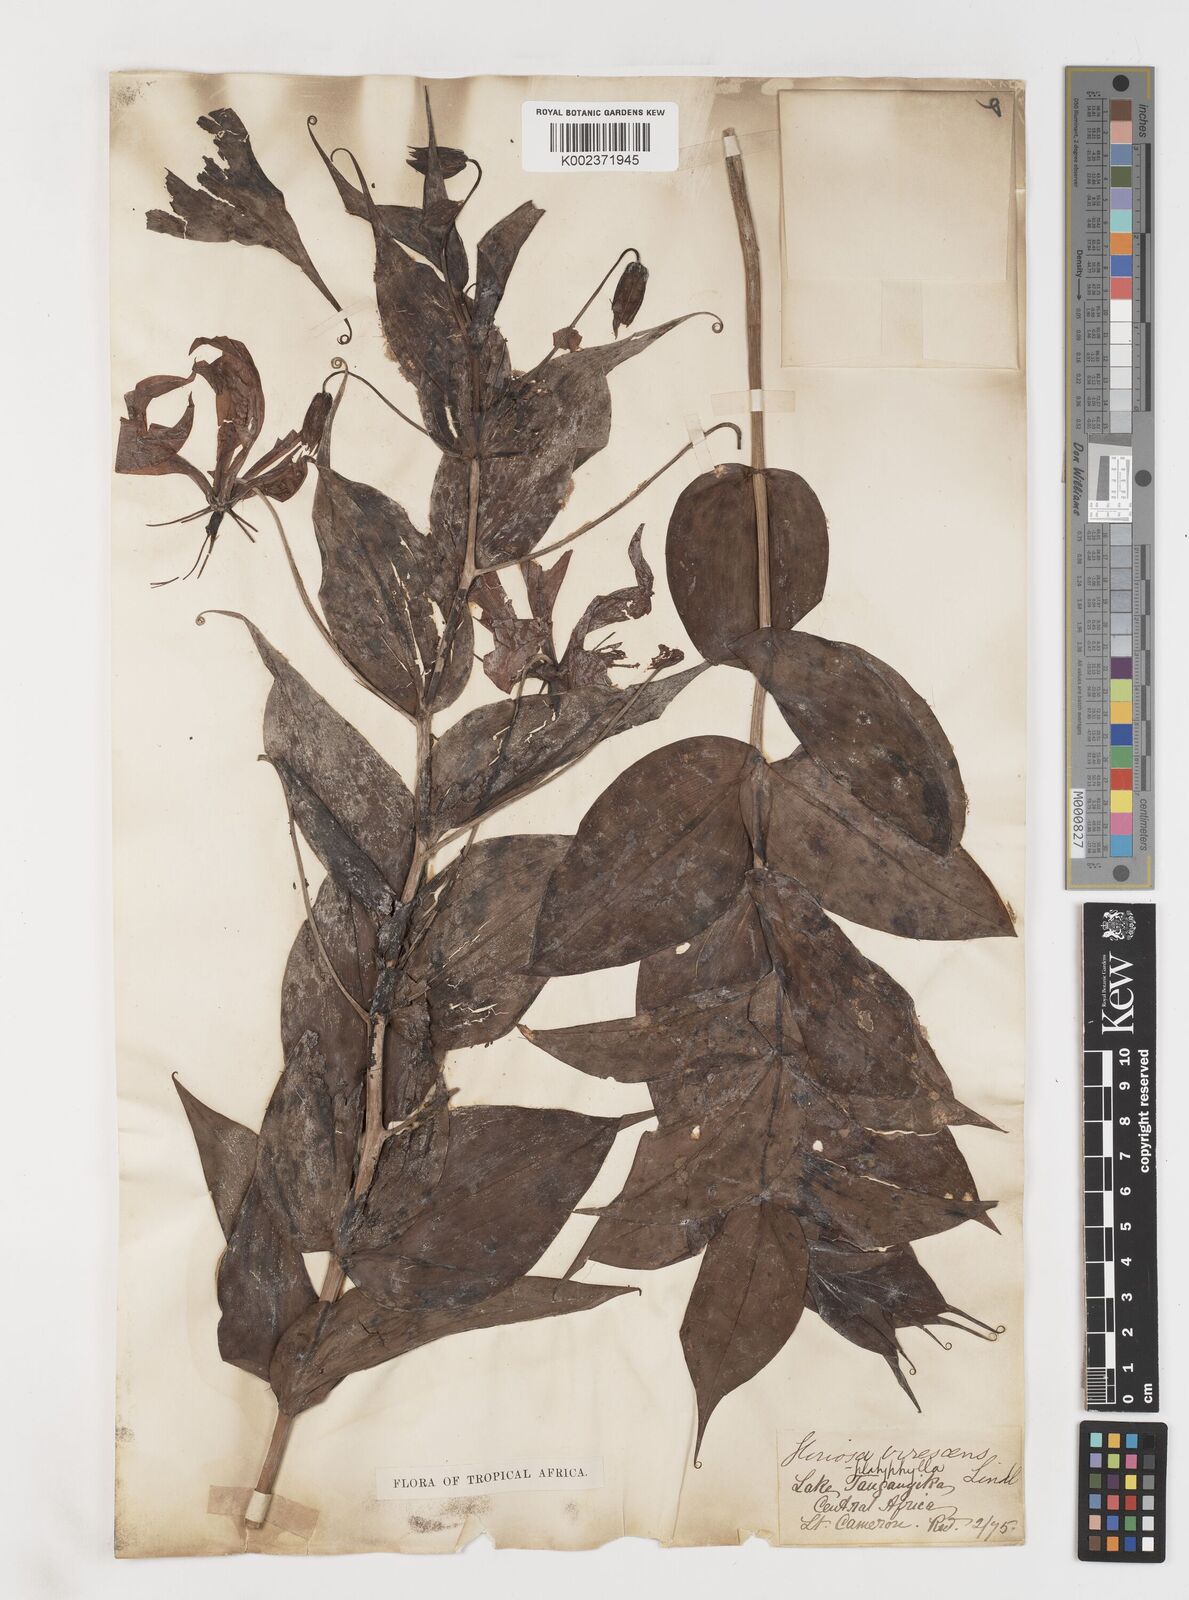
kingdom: Plantae
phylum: Tracheophyta
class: Liliopsida
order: Liliales
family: Colchicaceae
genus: Gloriosa
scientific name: Gloriosa simplex
